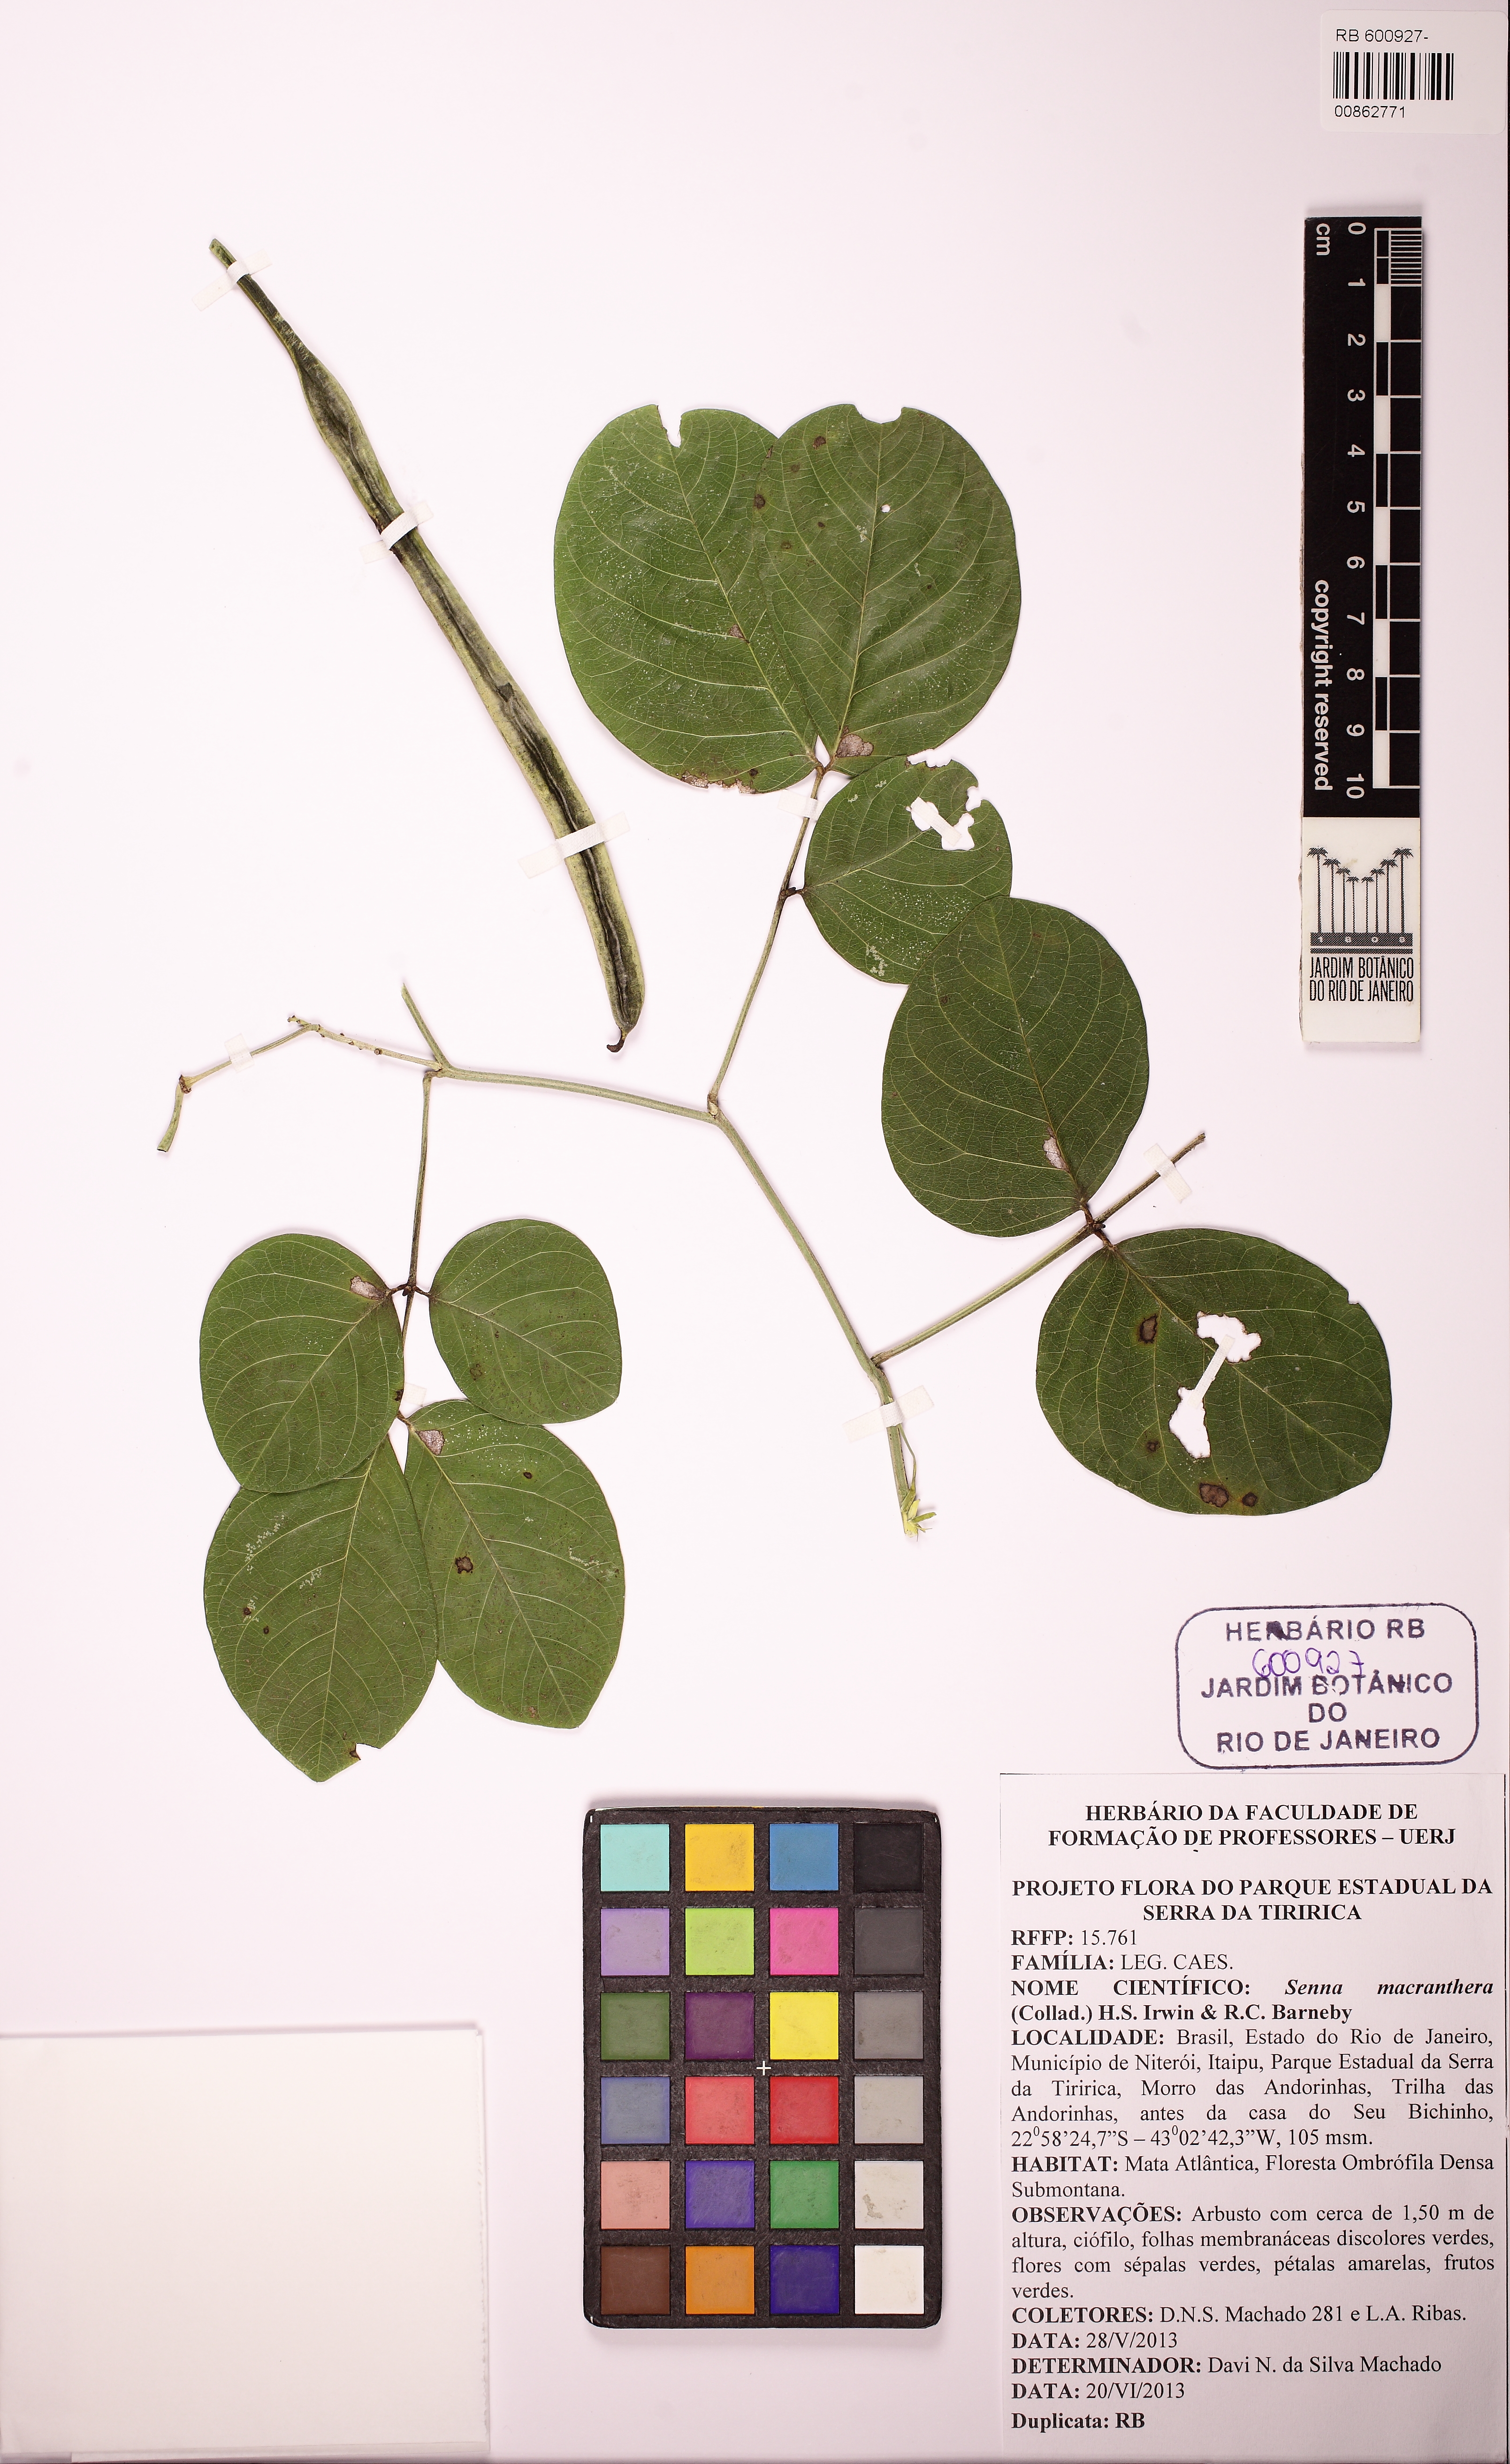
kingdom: Plantae
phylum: Tracheophyta
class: Magnoliopsida
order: Fabales
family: Fabaceae
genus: Senna
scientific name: Senna affinis
